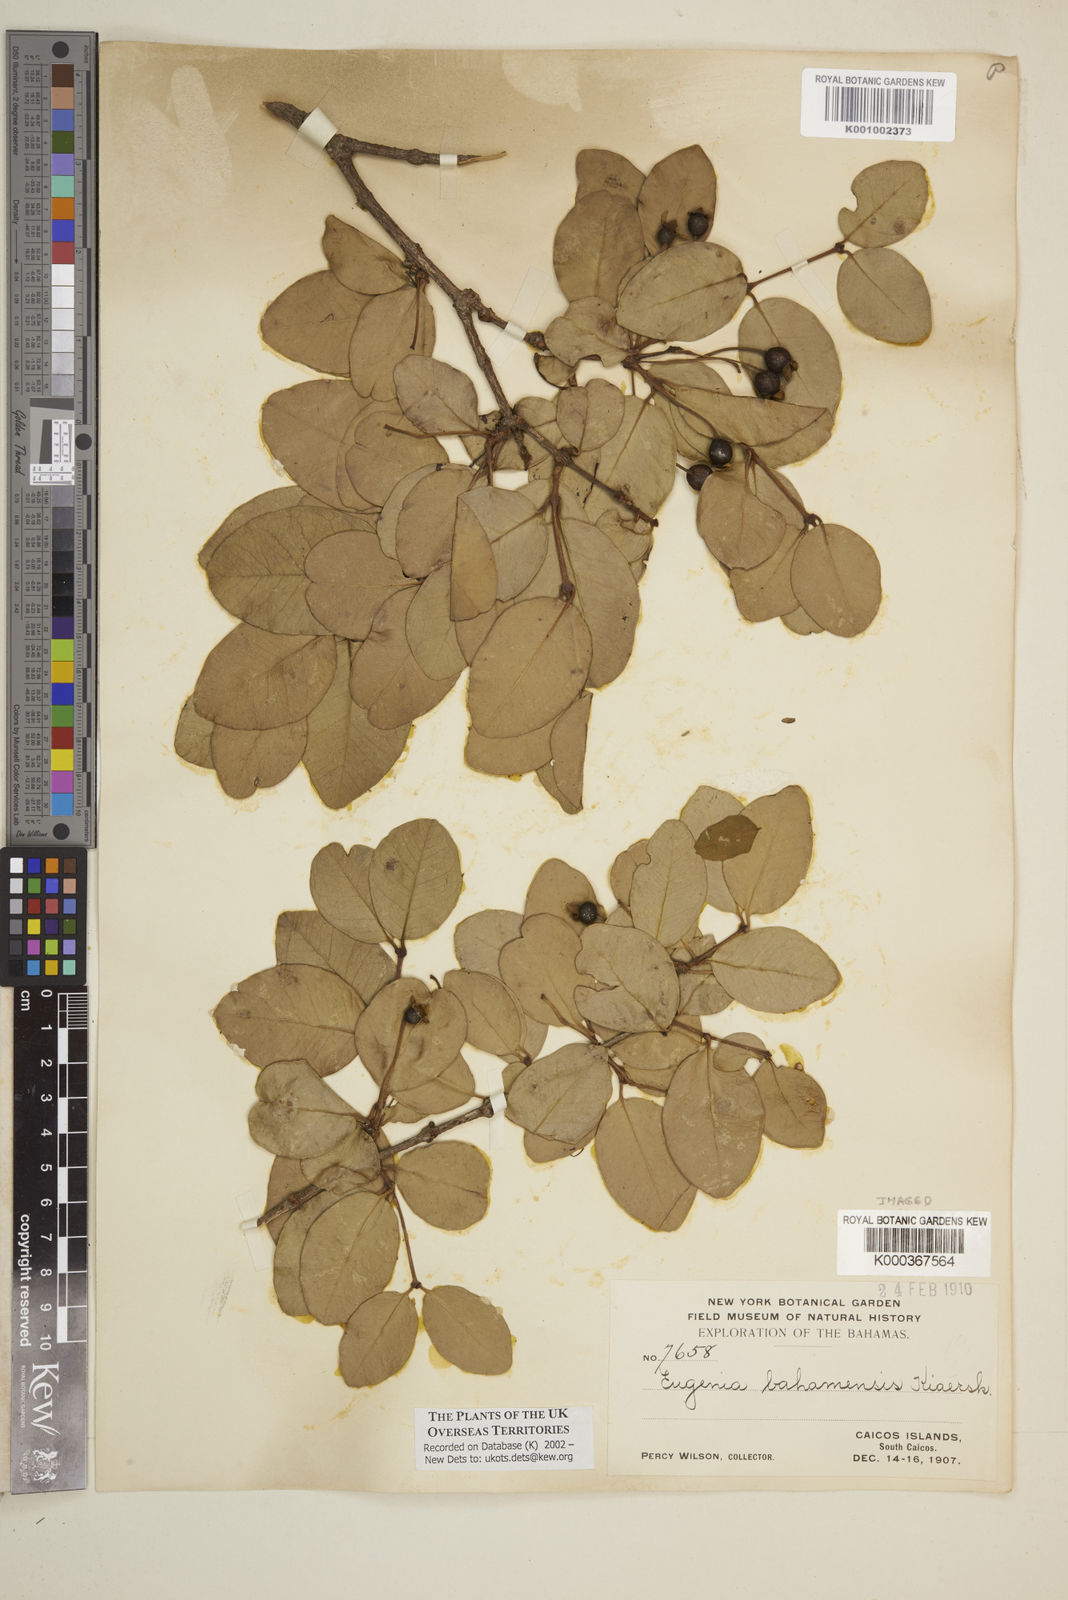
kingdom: Plantae
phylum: Tracheophyta
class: Magnoliopsida
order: Myrtales
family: Myrtaceae
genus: Mosiera
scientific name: Mosiera longipes
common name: Bahama stopper
